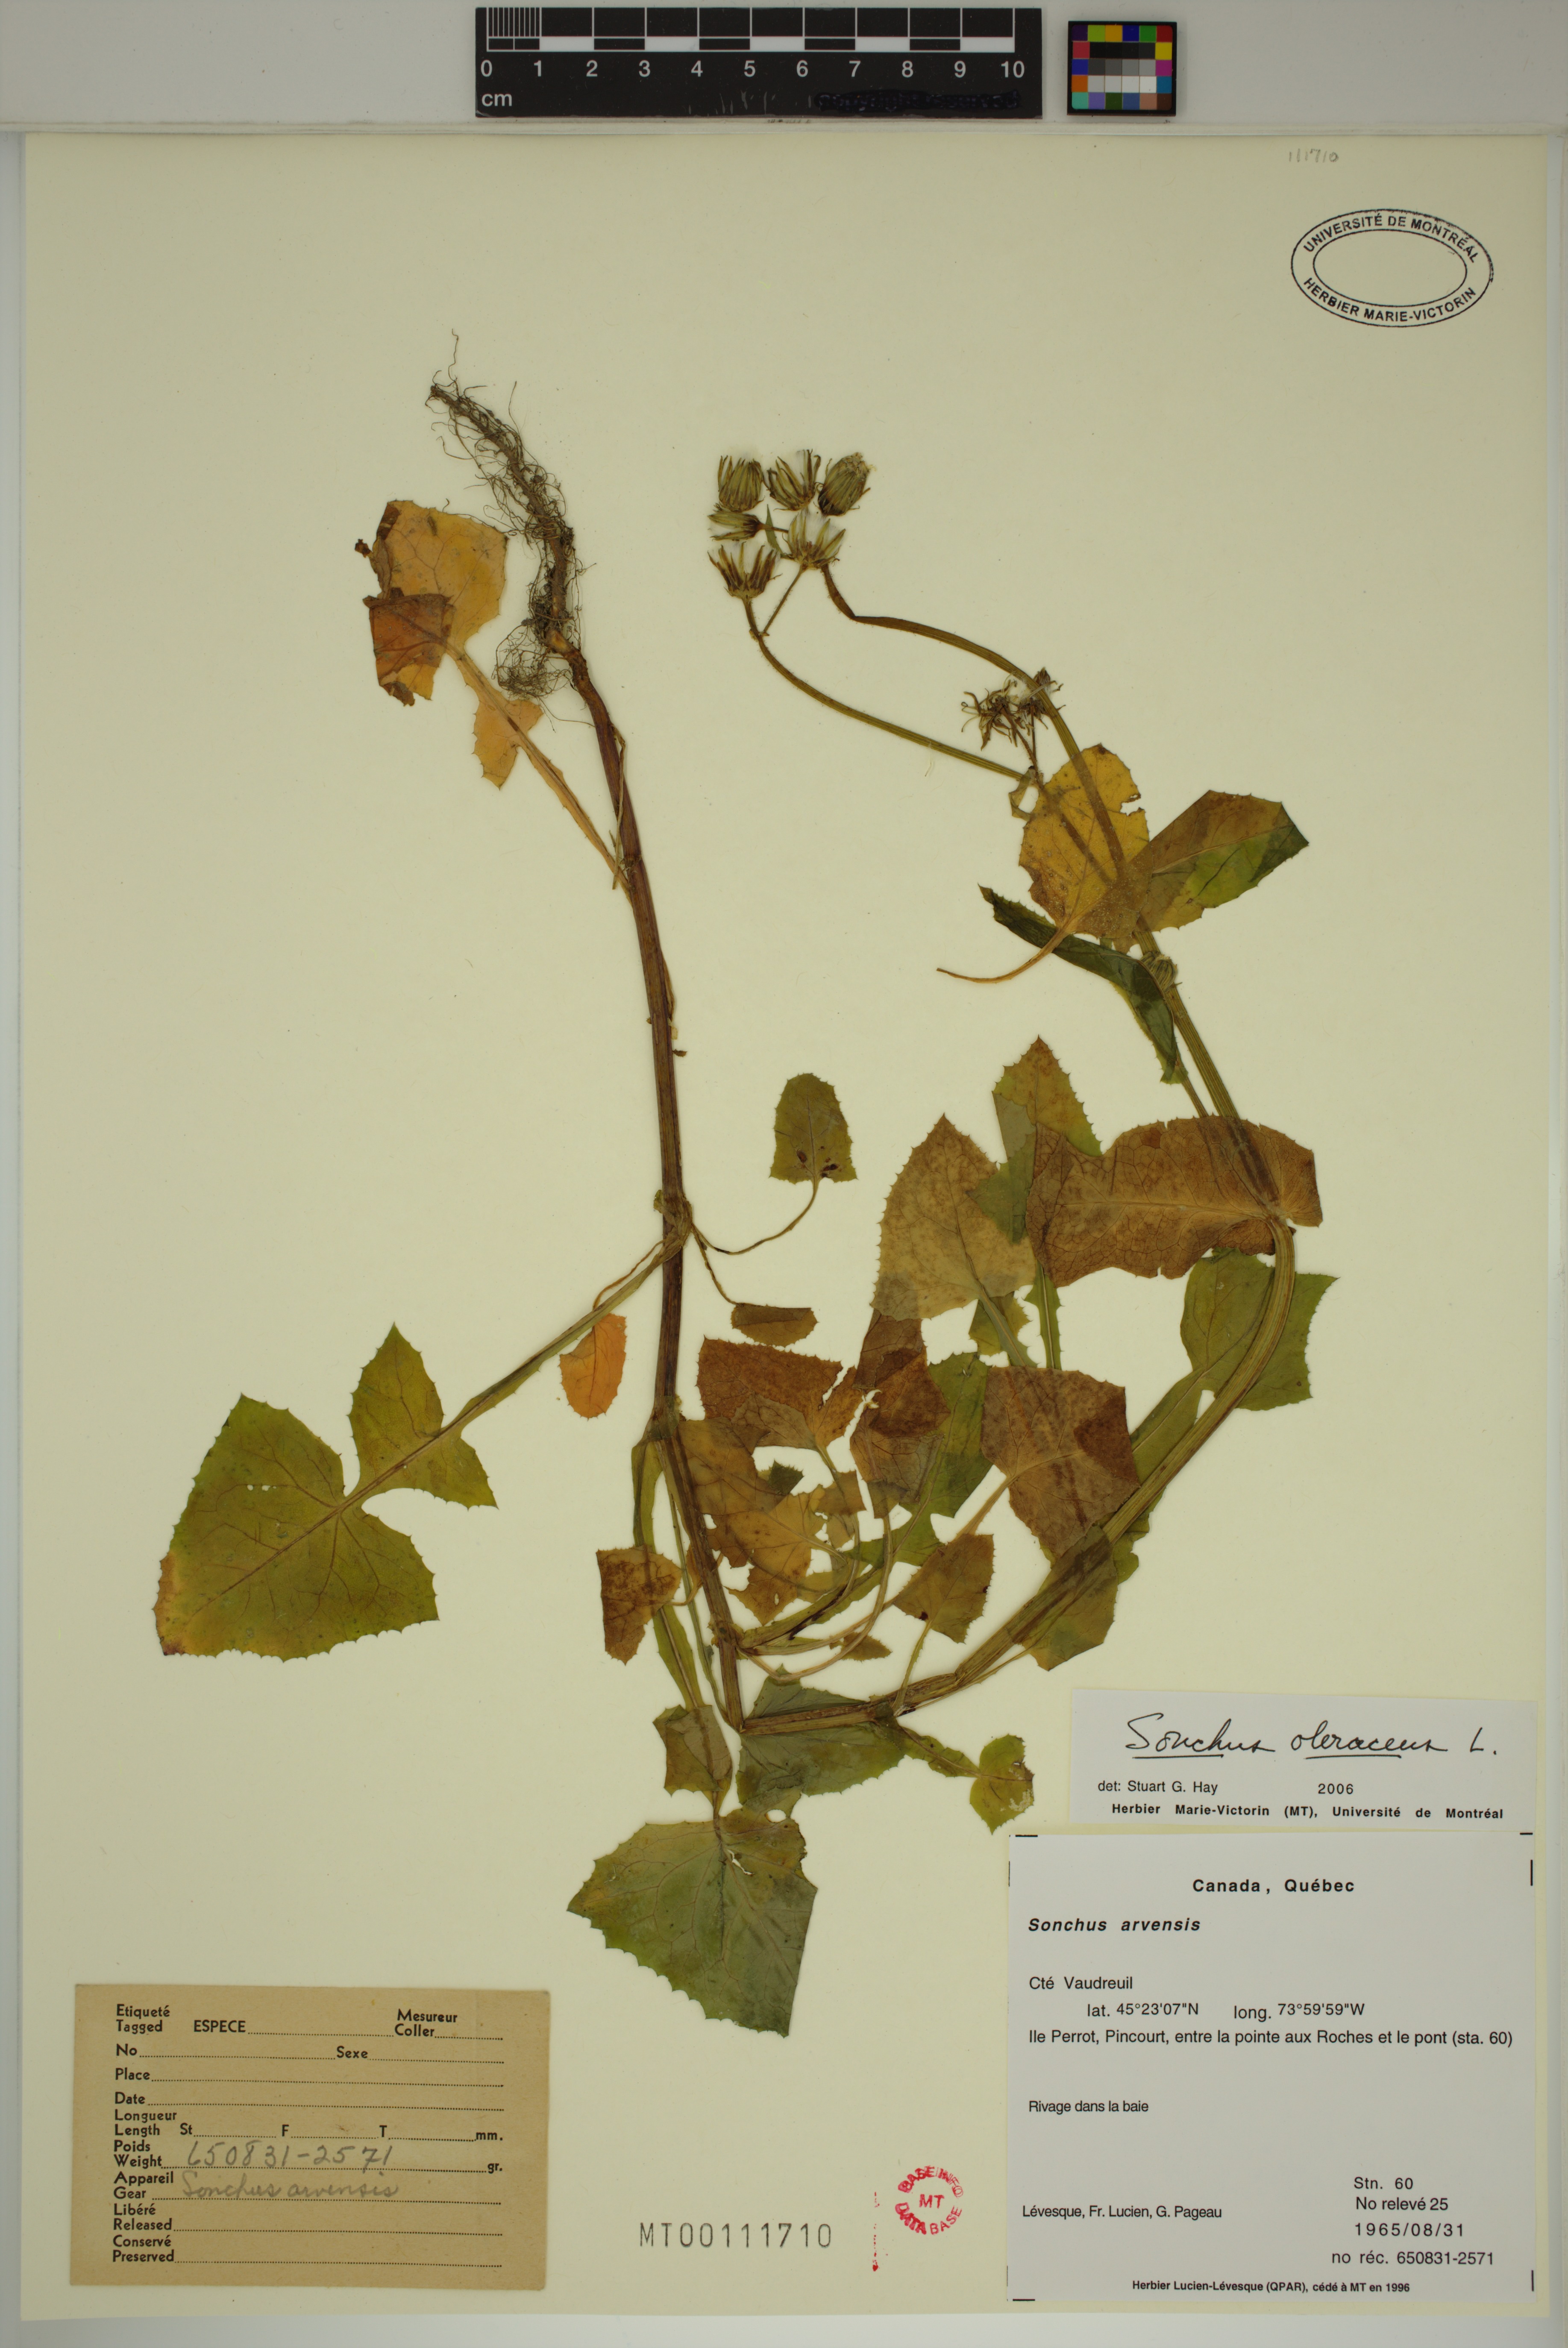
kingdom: Plantae
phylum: Tracheophyta
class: Magnoliopsida
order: Asterales
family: Asteraceae
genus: Sonchus
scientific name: Sonchus oleraceus
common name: Common sowthistle
